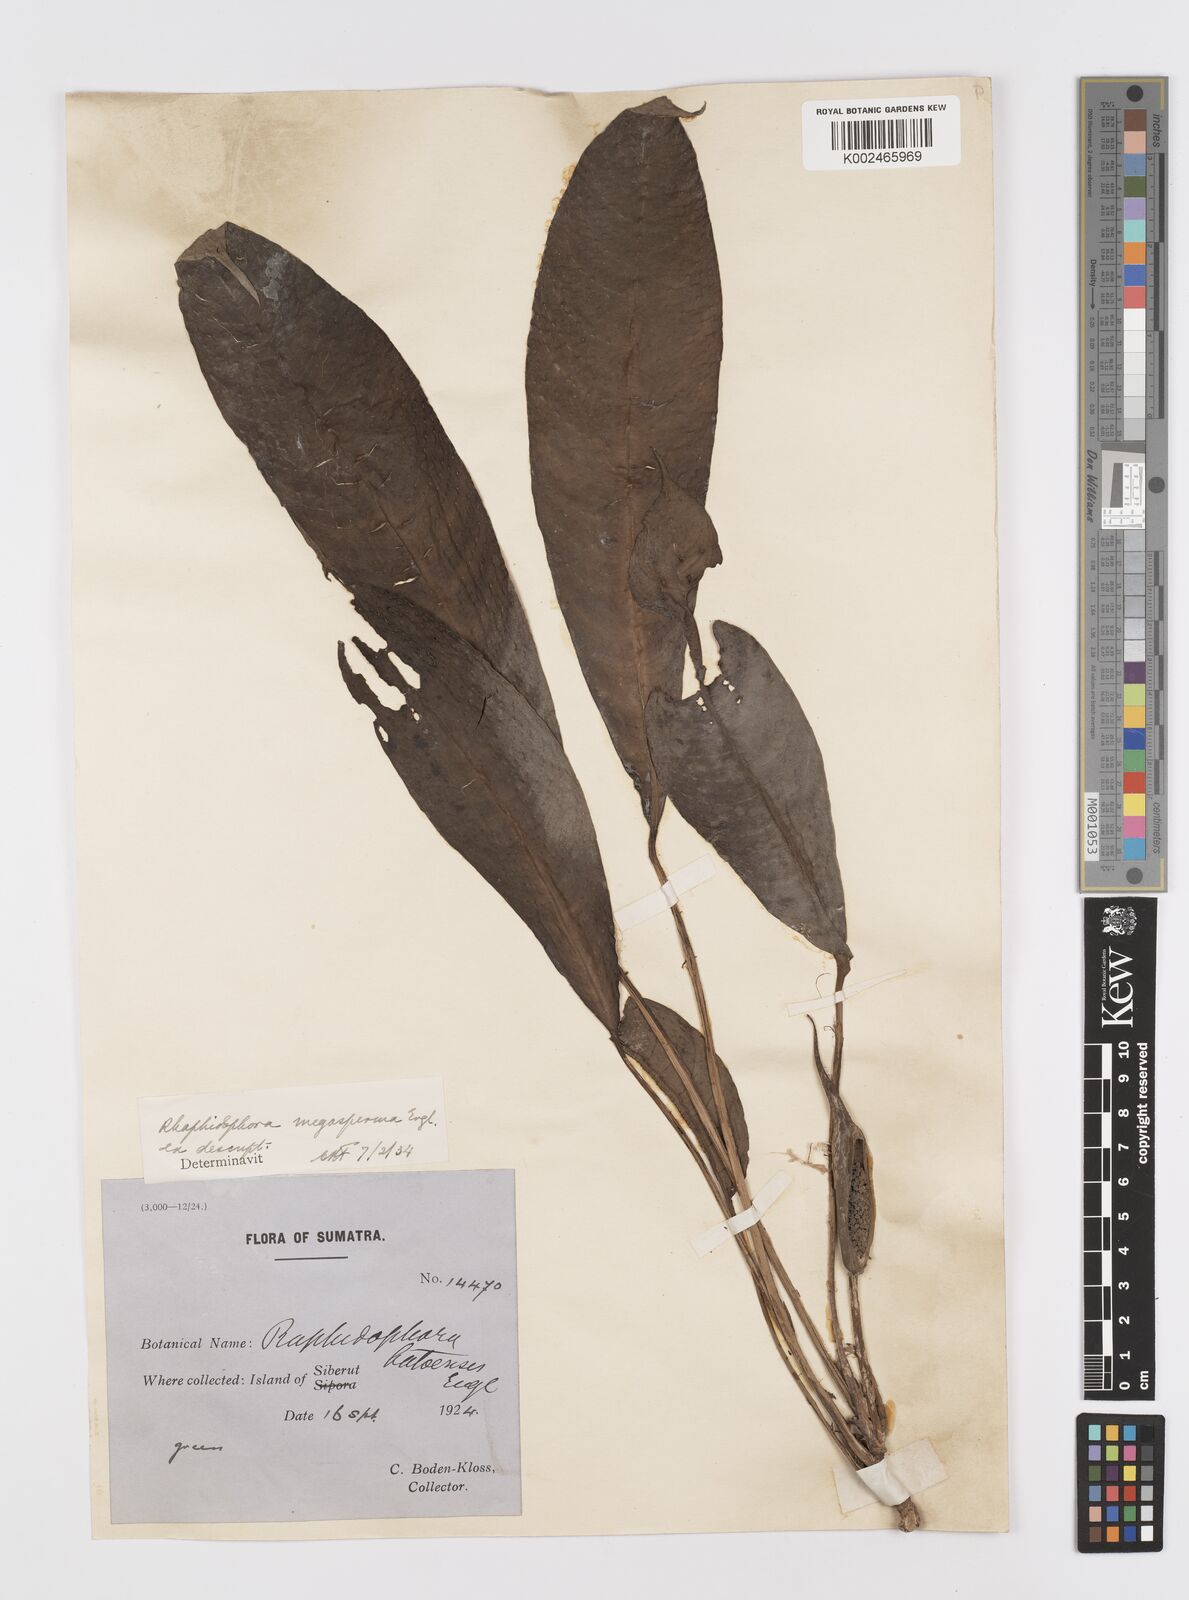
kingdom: Plantae
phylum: Tracheophyta
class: Liliopsida
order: Alismatales
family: Araceae
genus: Rhaphidophora
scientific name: Rhaphidophora puberula
